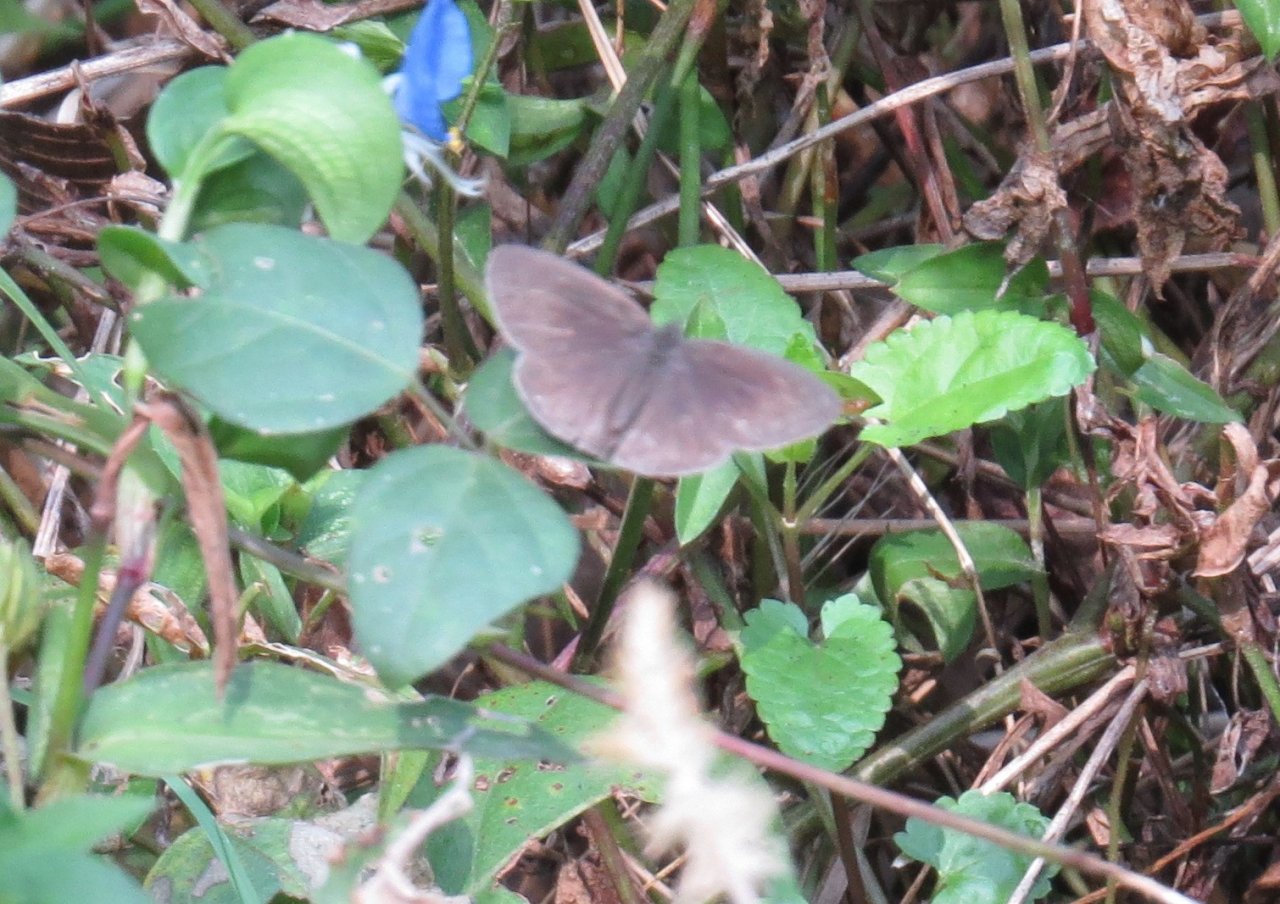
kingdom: Animalia
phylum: Arthropoda
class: Insecta
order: Lepidoptera
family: Nymphalidae
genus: Hermeuptychia
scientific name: Hermeuptychia hermes
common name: Carolina Satyr
